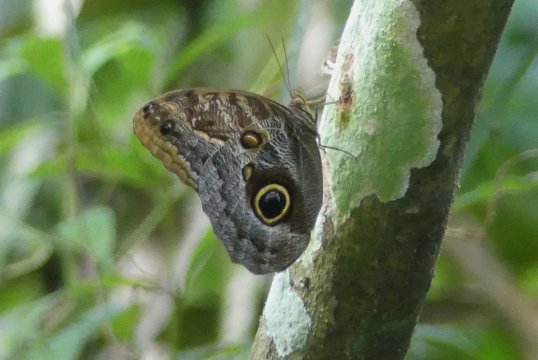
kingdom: Animalia
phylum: Arthropoda
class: Insecta
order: Lepidoptera
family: Nymphalidae
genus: Caligo
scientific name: Caligo telamonius
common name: Pale Owl-Butterfly
